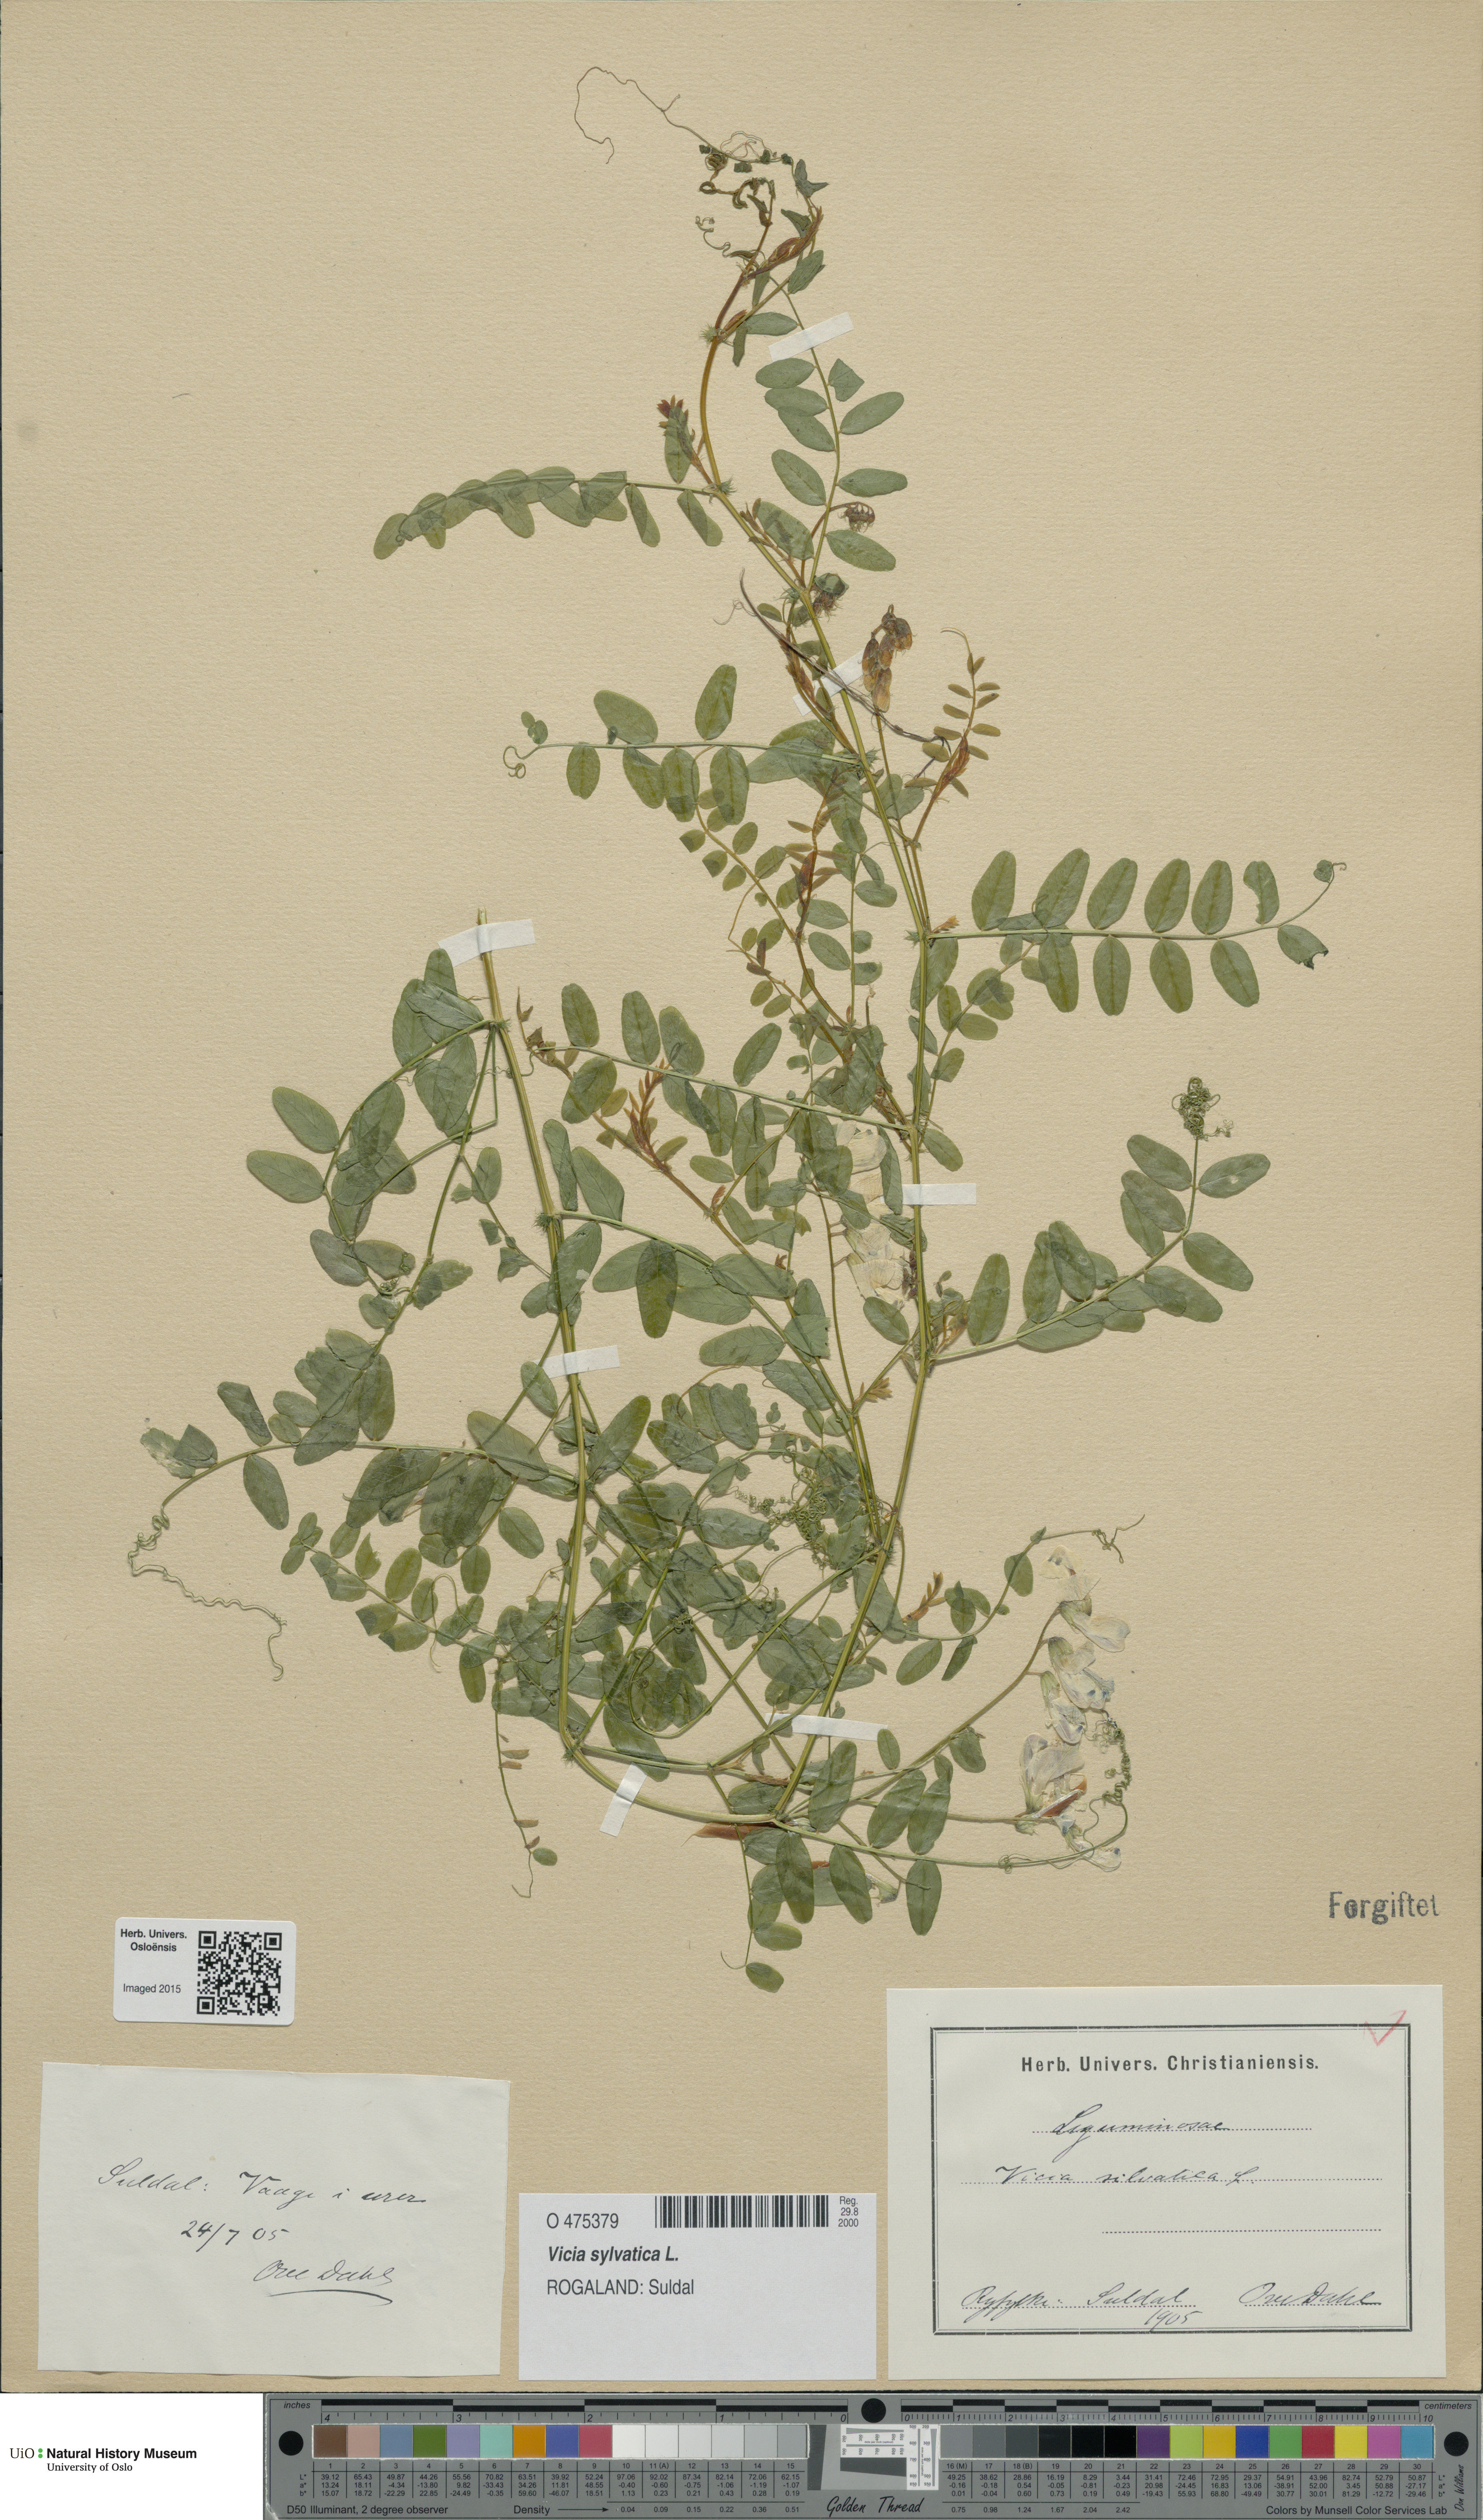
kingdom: Plantae
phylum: Tracheophyta
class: Magnoliopsida
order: Fabales
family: Fabaceae
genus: Vicia
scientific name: Vicia sylvatica
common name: Wood vetch
